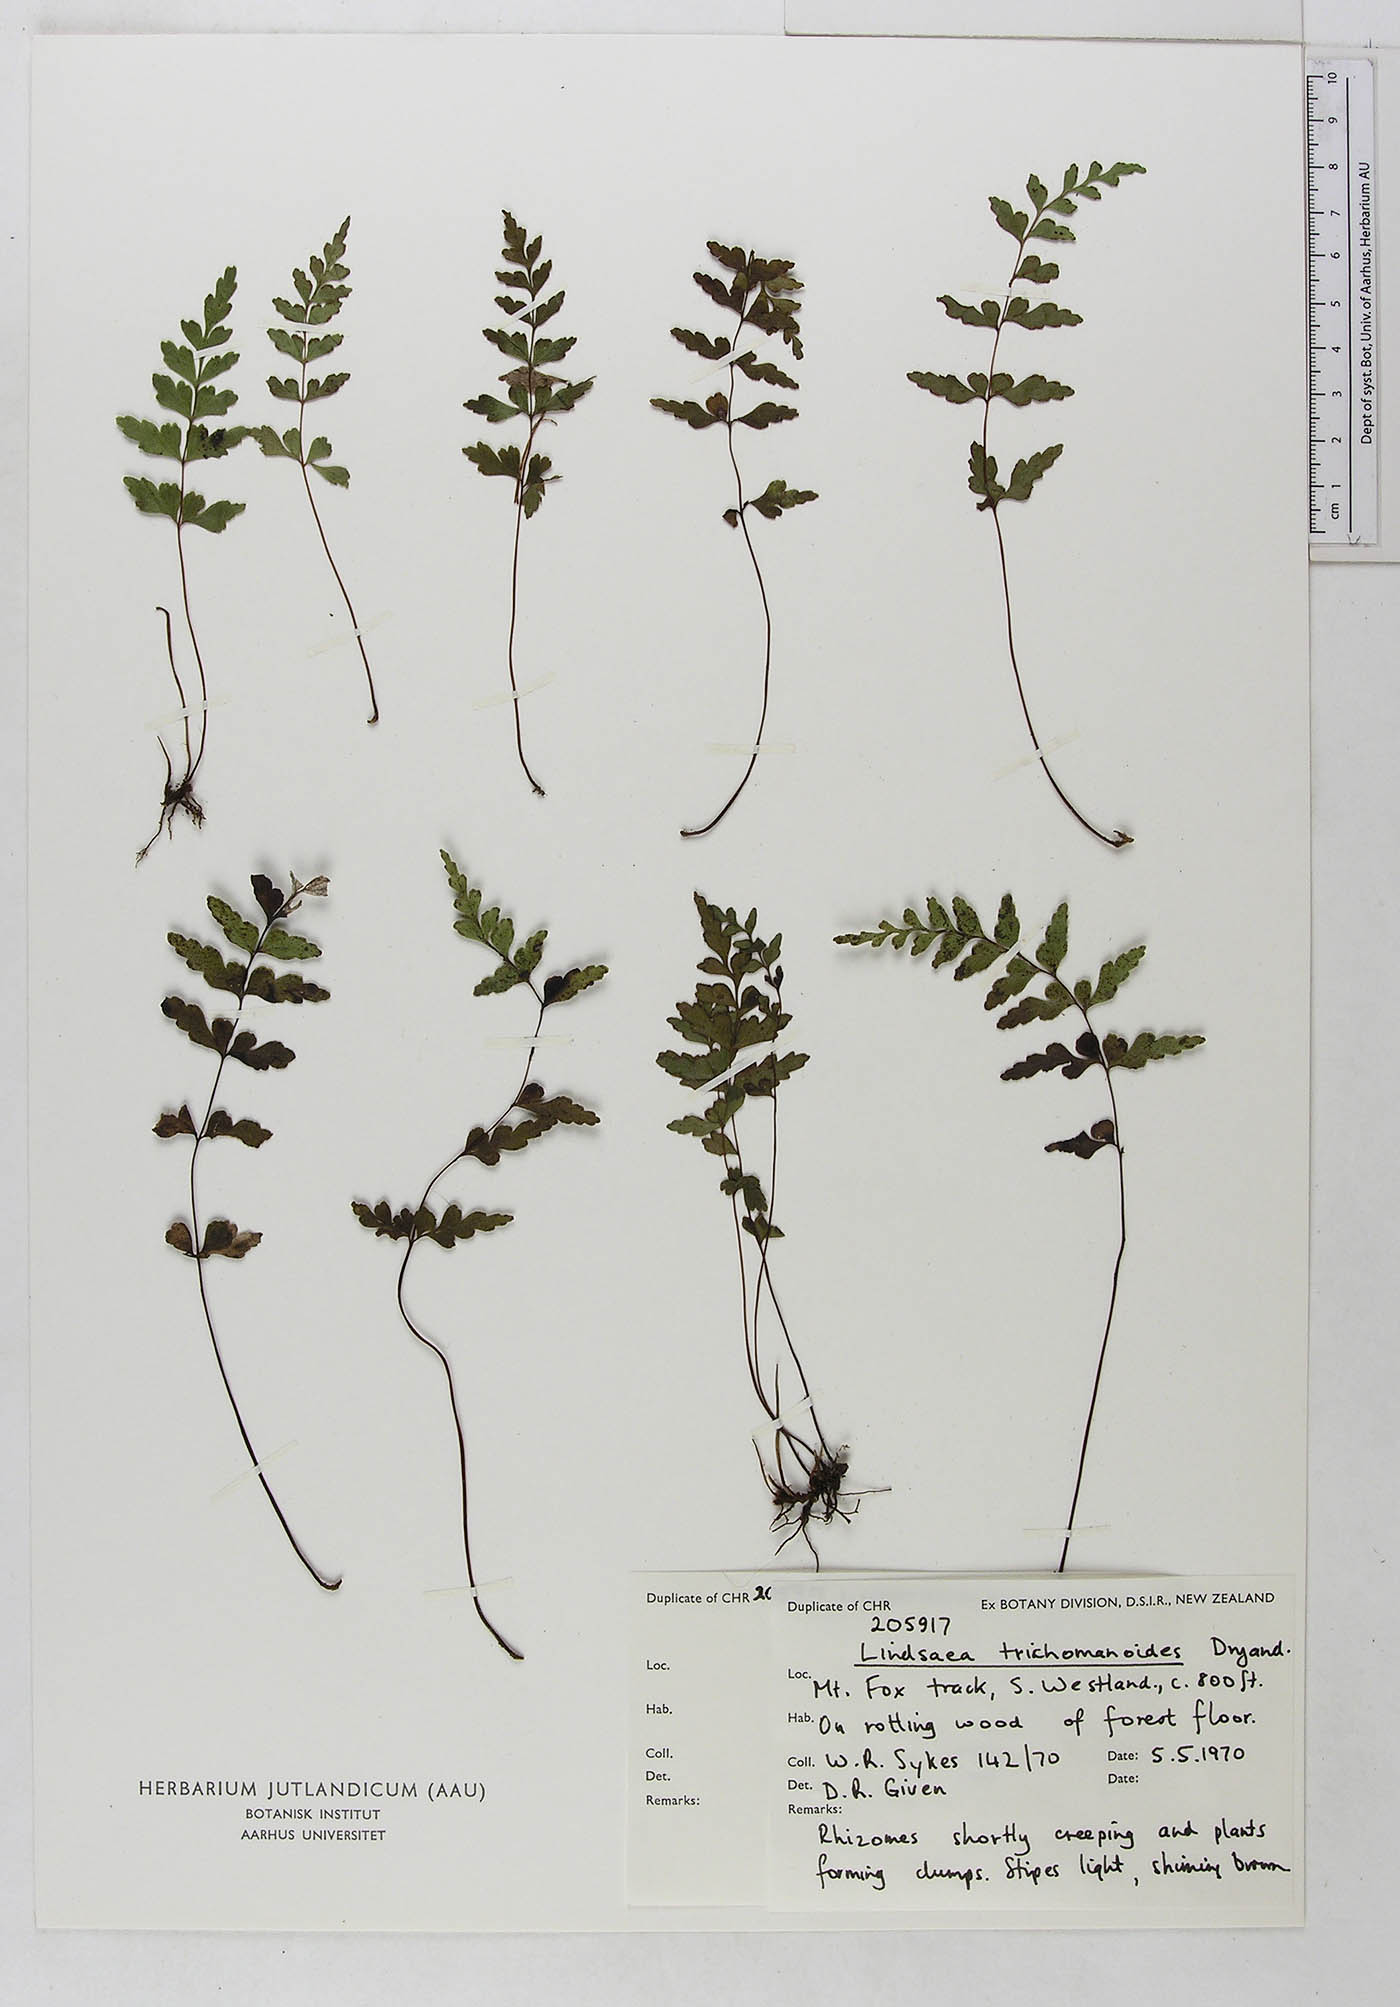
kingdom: Plantae
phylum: Tracheophyta
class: Polypodiopsida
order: Polypodiales
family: Lindsaeaceae
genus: Lindsaea
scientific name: Lindsaea trichomanoides
